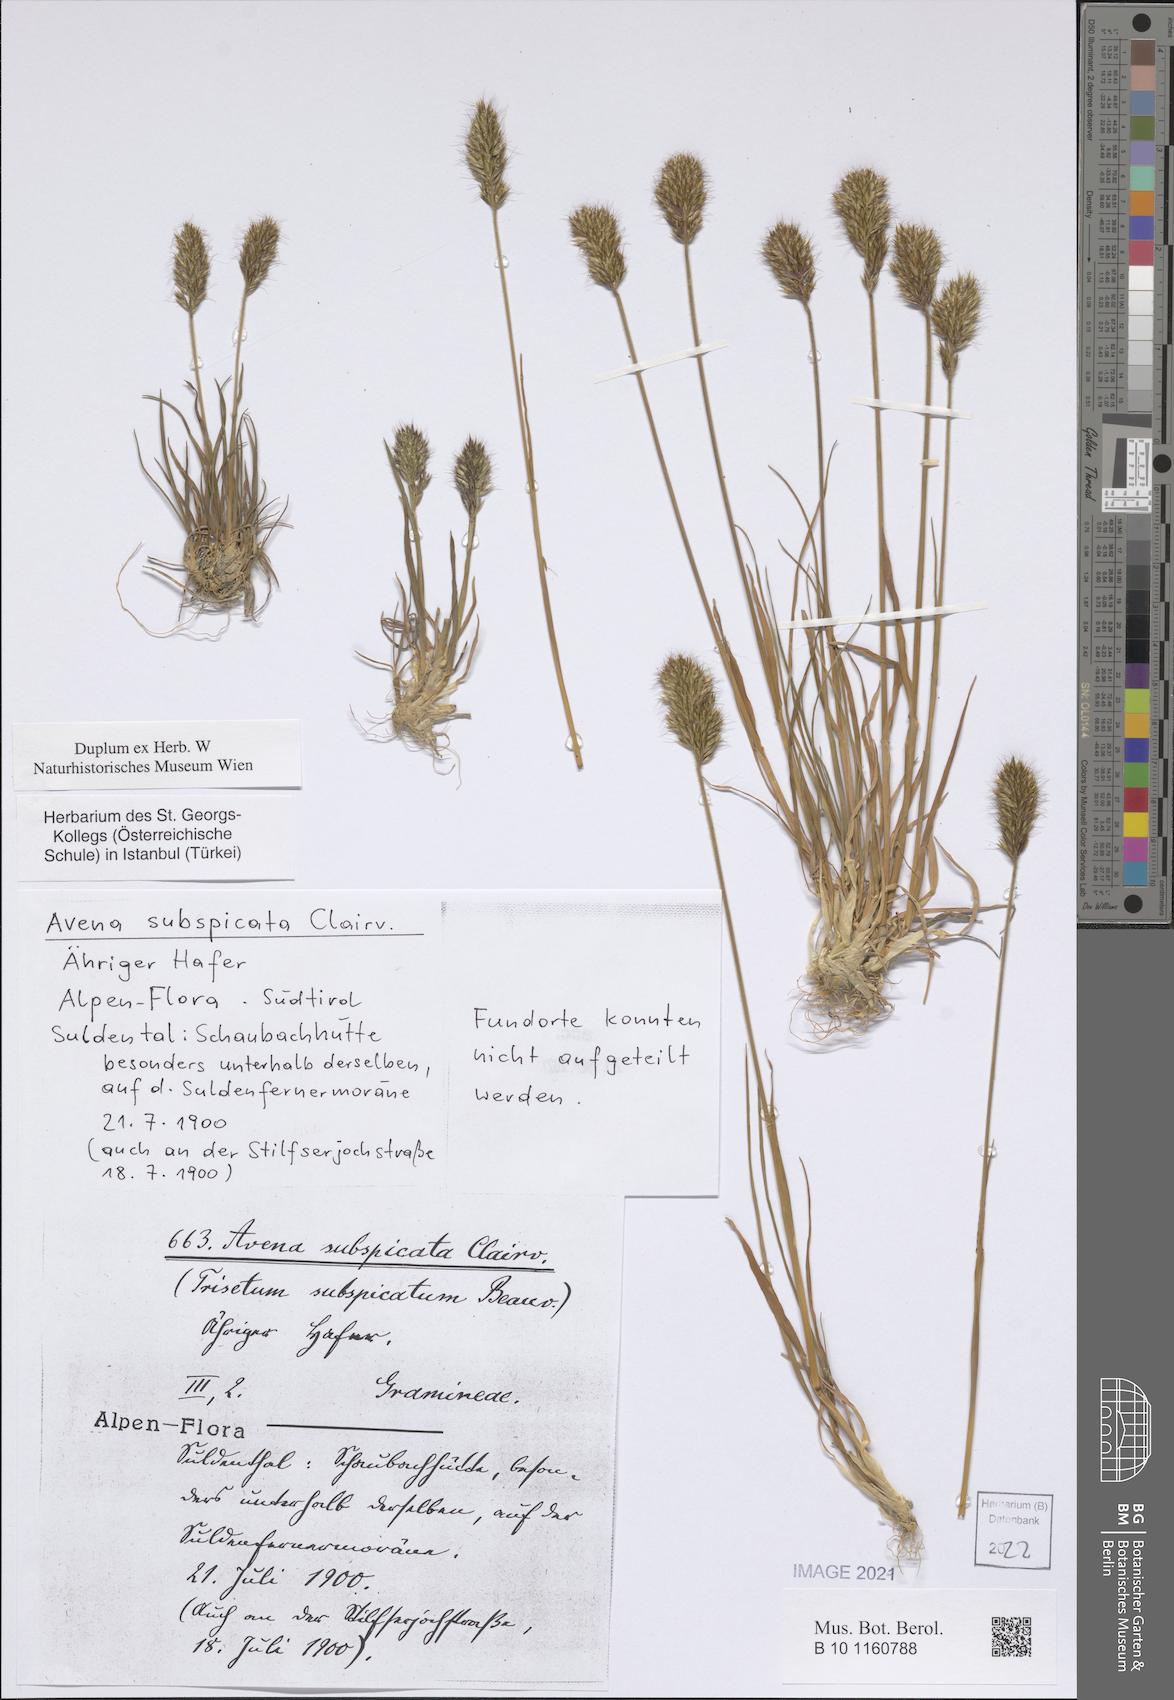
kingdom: Plantae
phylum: Tracheophyta
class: Liliopsida
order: Poales
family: Poaceae
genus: Koeleria
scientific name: Koeleria spicata
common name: Mountain trisetum
